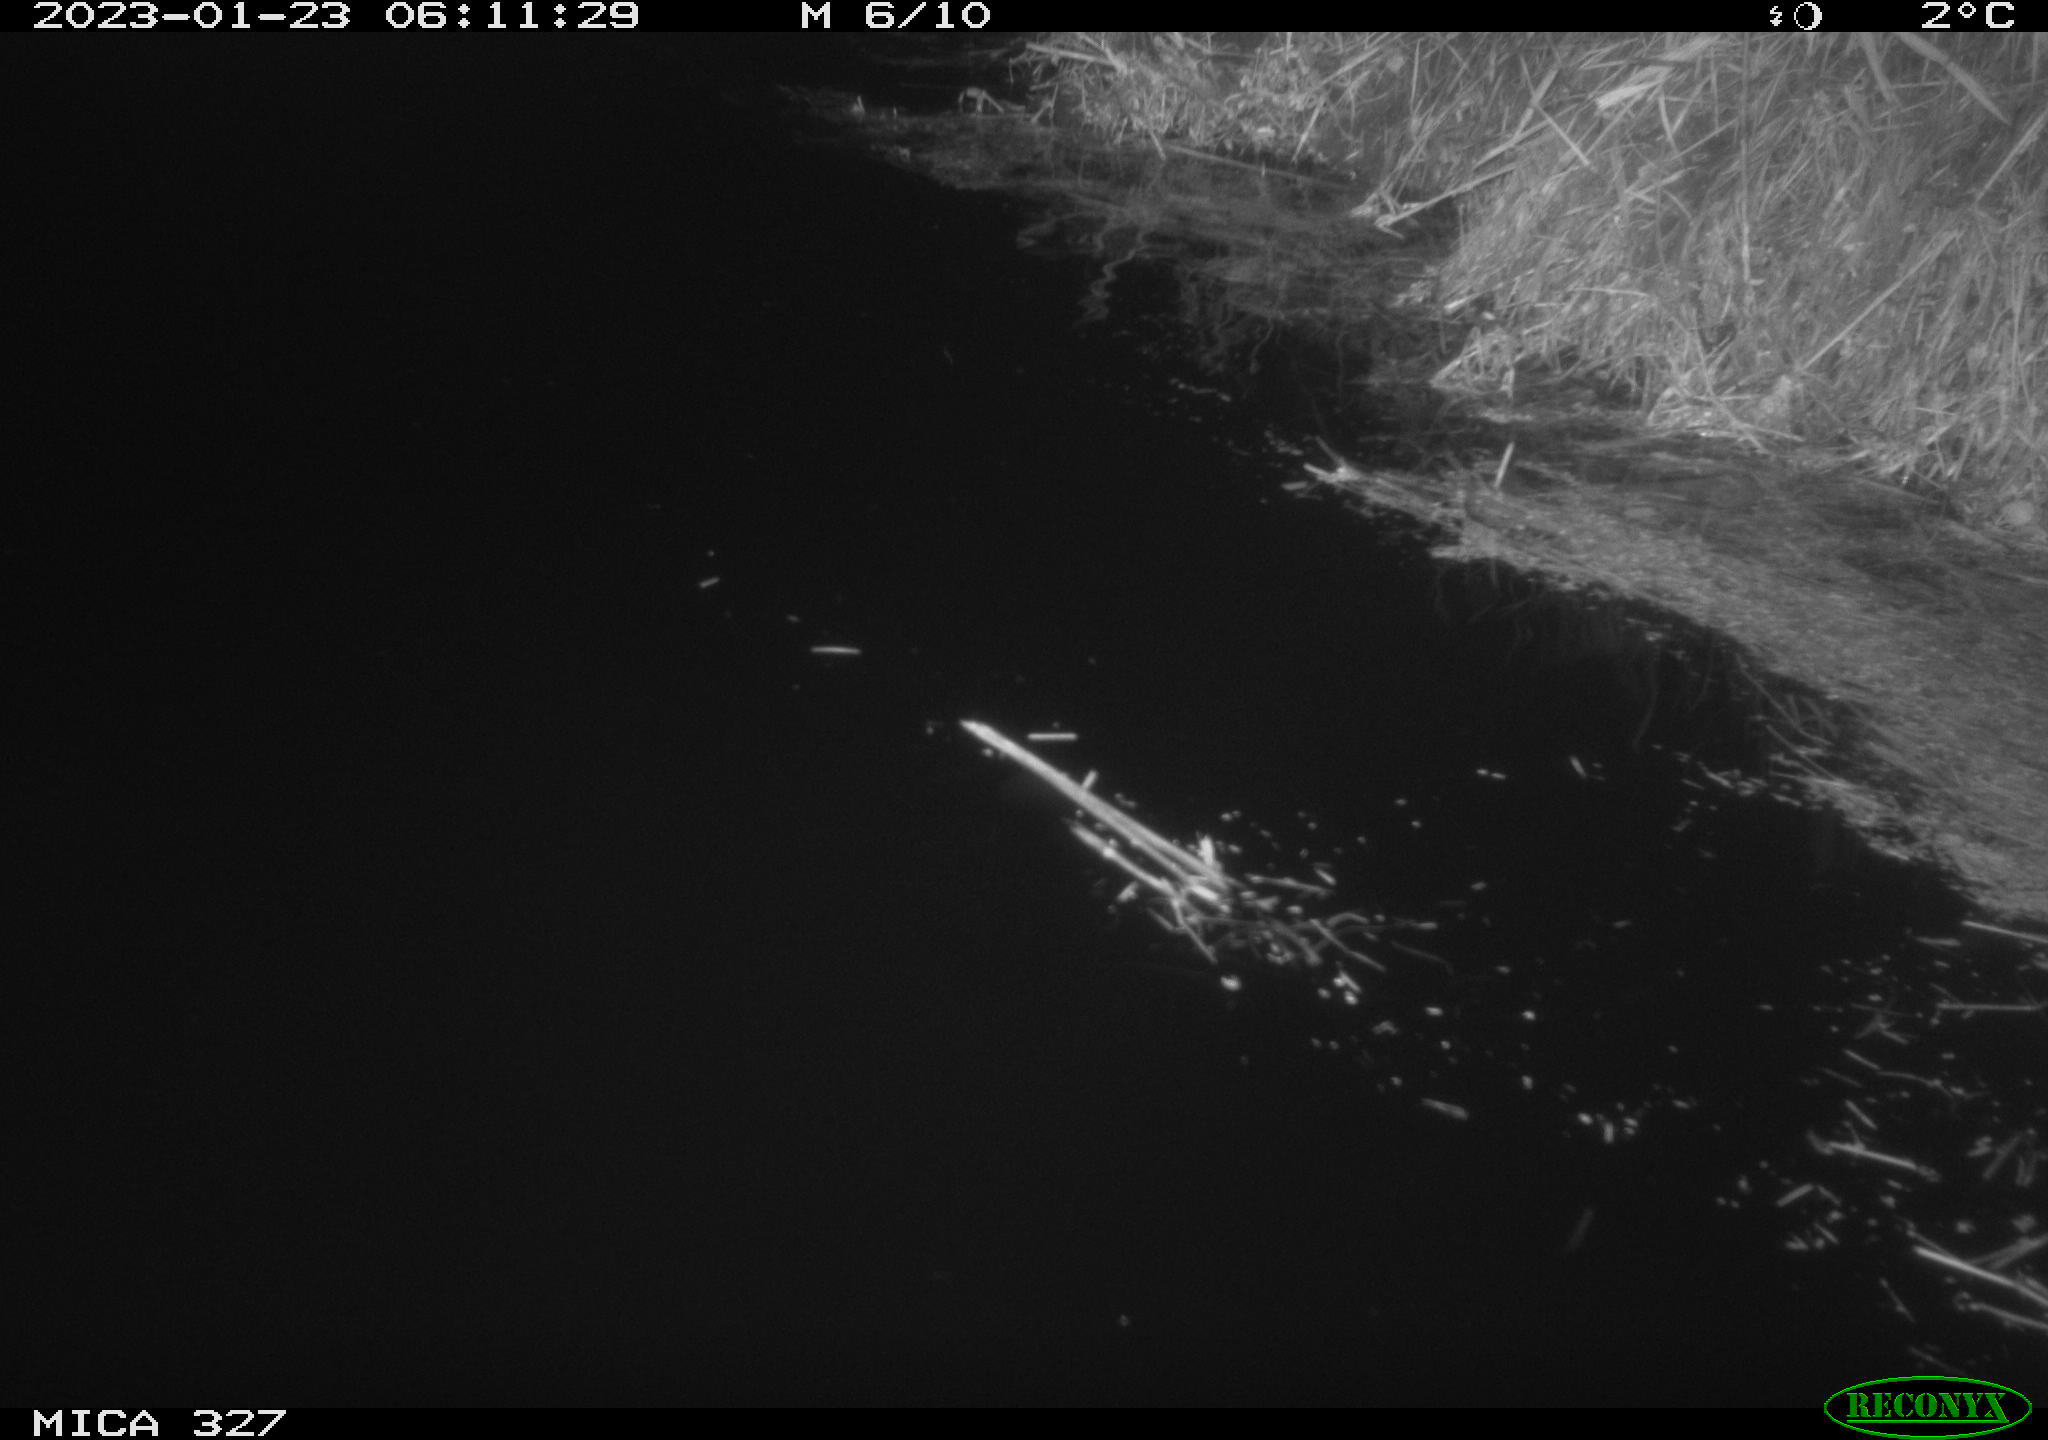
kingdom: Animalia
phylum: Chordata
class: Mammalia
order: Rodentia
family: Cricetidae
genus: Ondatra
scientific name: Ondatra zibethicus
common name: Muskrat
